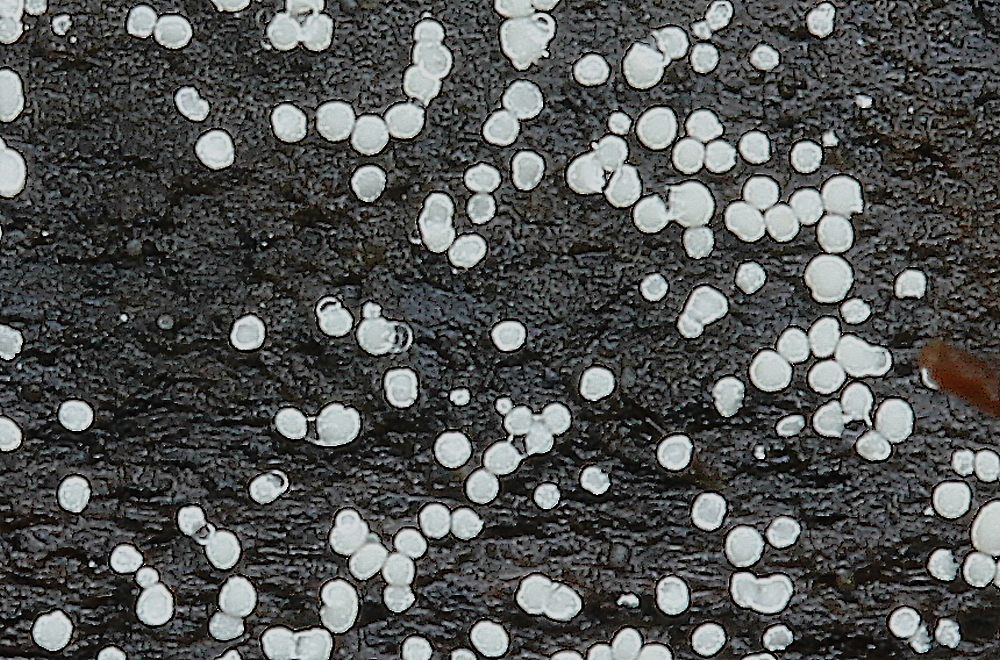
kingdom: Fungi
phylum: Basidiomycota
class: Agaricomycetes
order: Polyporales
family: Meruliaceae
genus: Scopuloides
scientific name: Scopuloides rimosa
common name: dughinde
